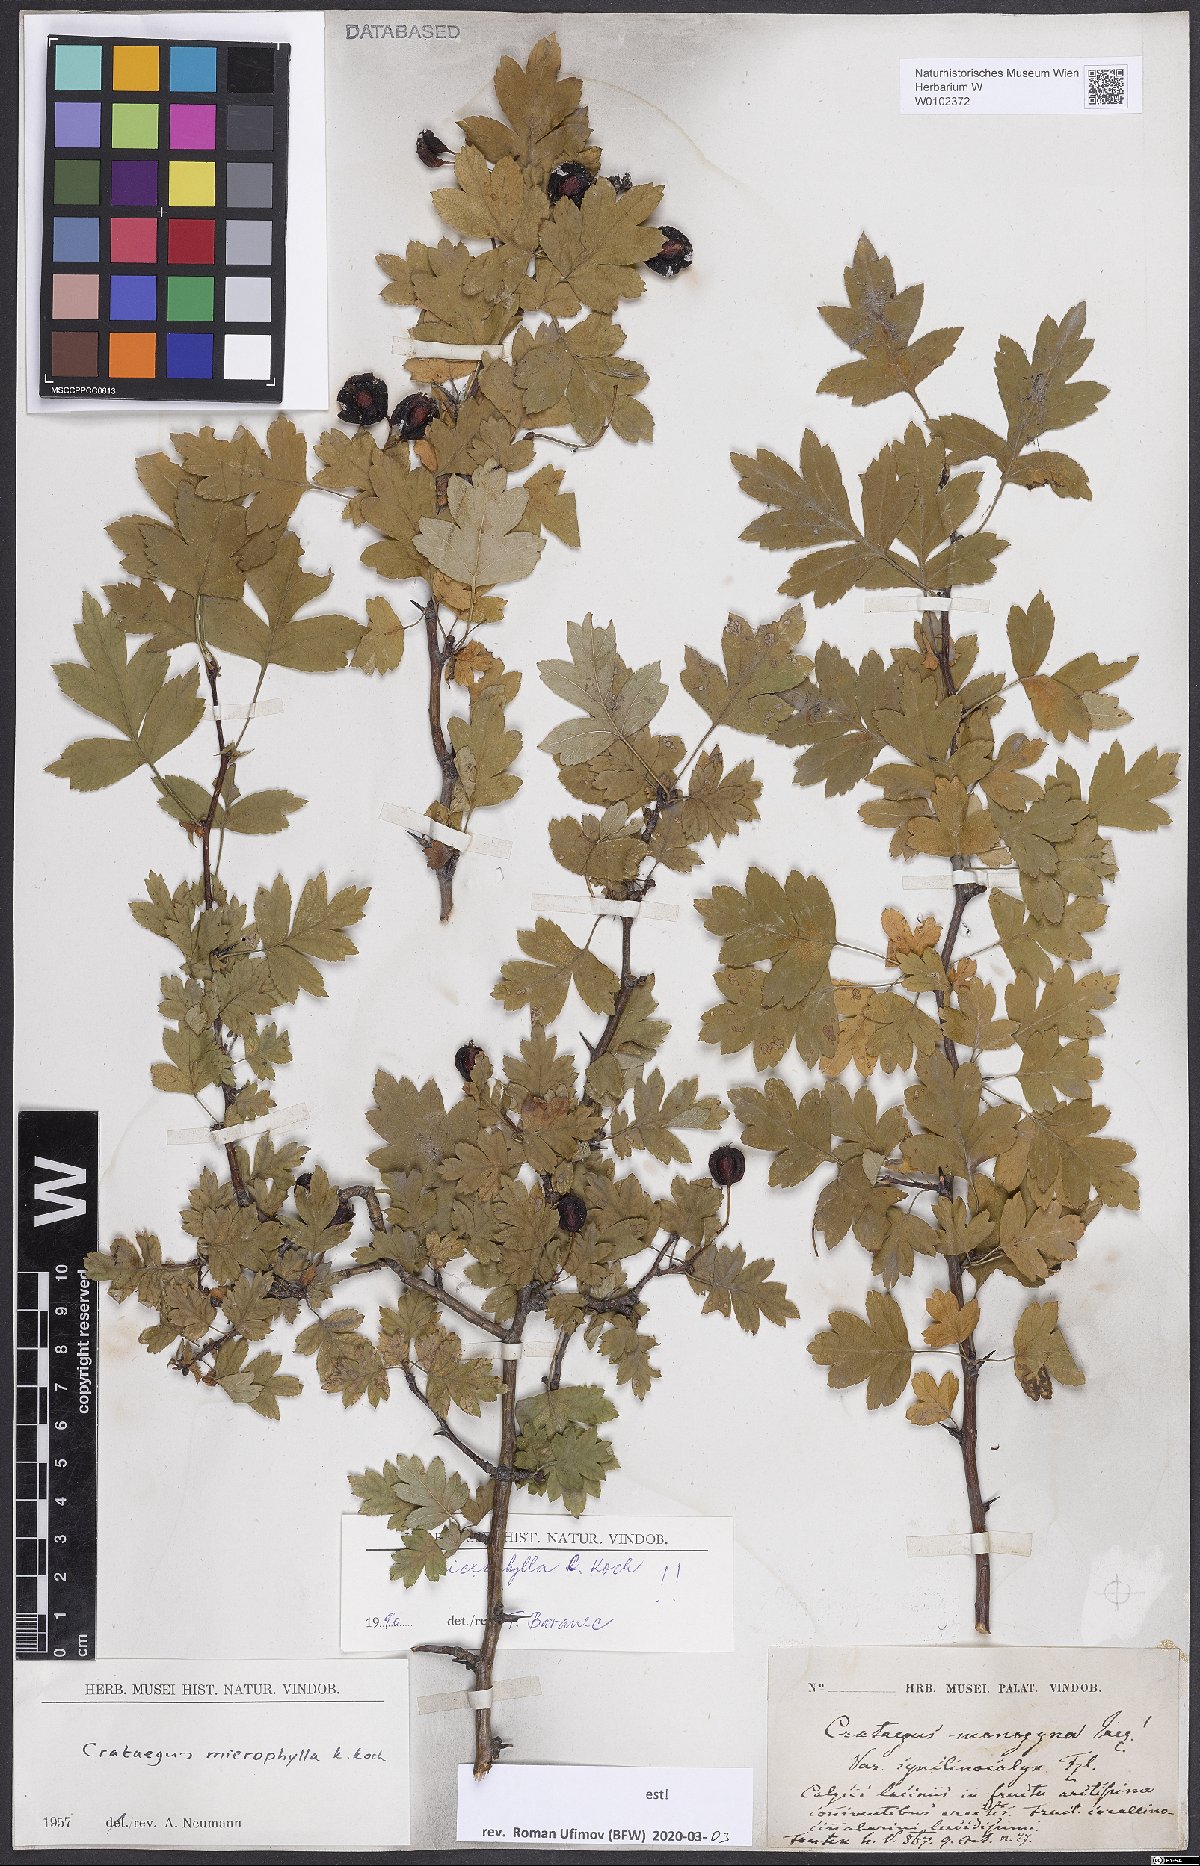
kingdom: Plantae
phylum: Tracheophyta
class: Magnoliopsida
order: Rosales
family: Rosaceae
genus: Crataegus
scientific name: Crataegus microphylla
